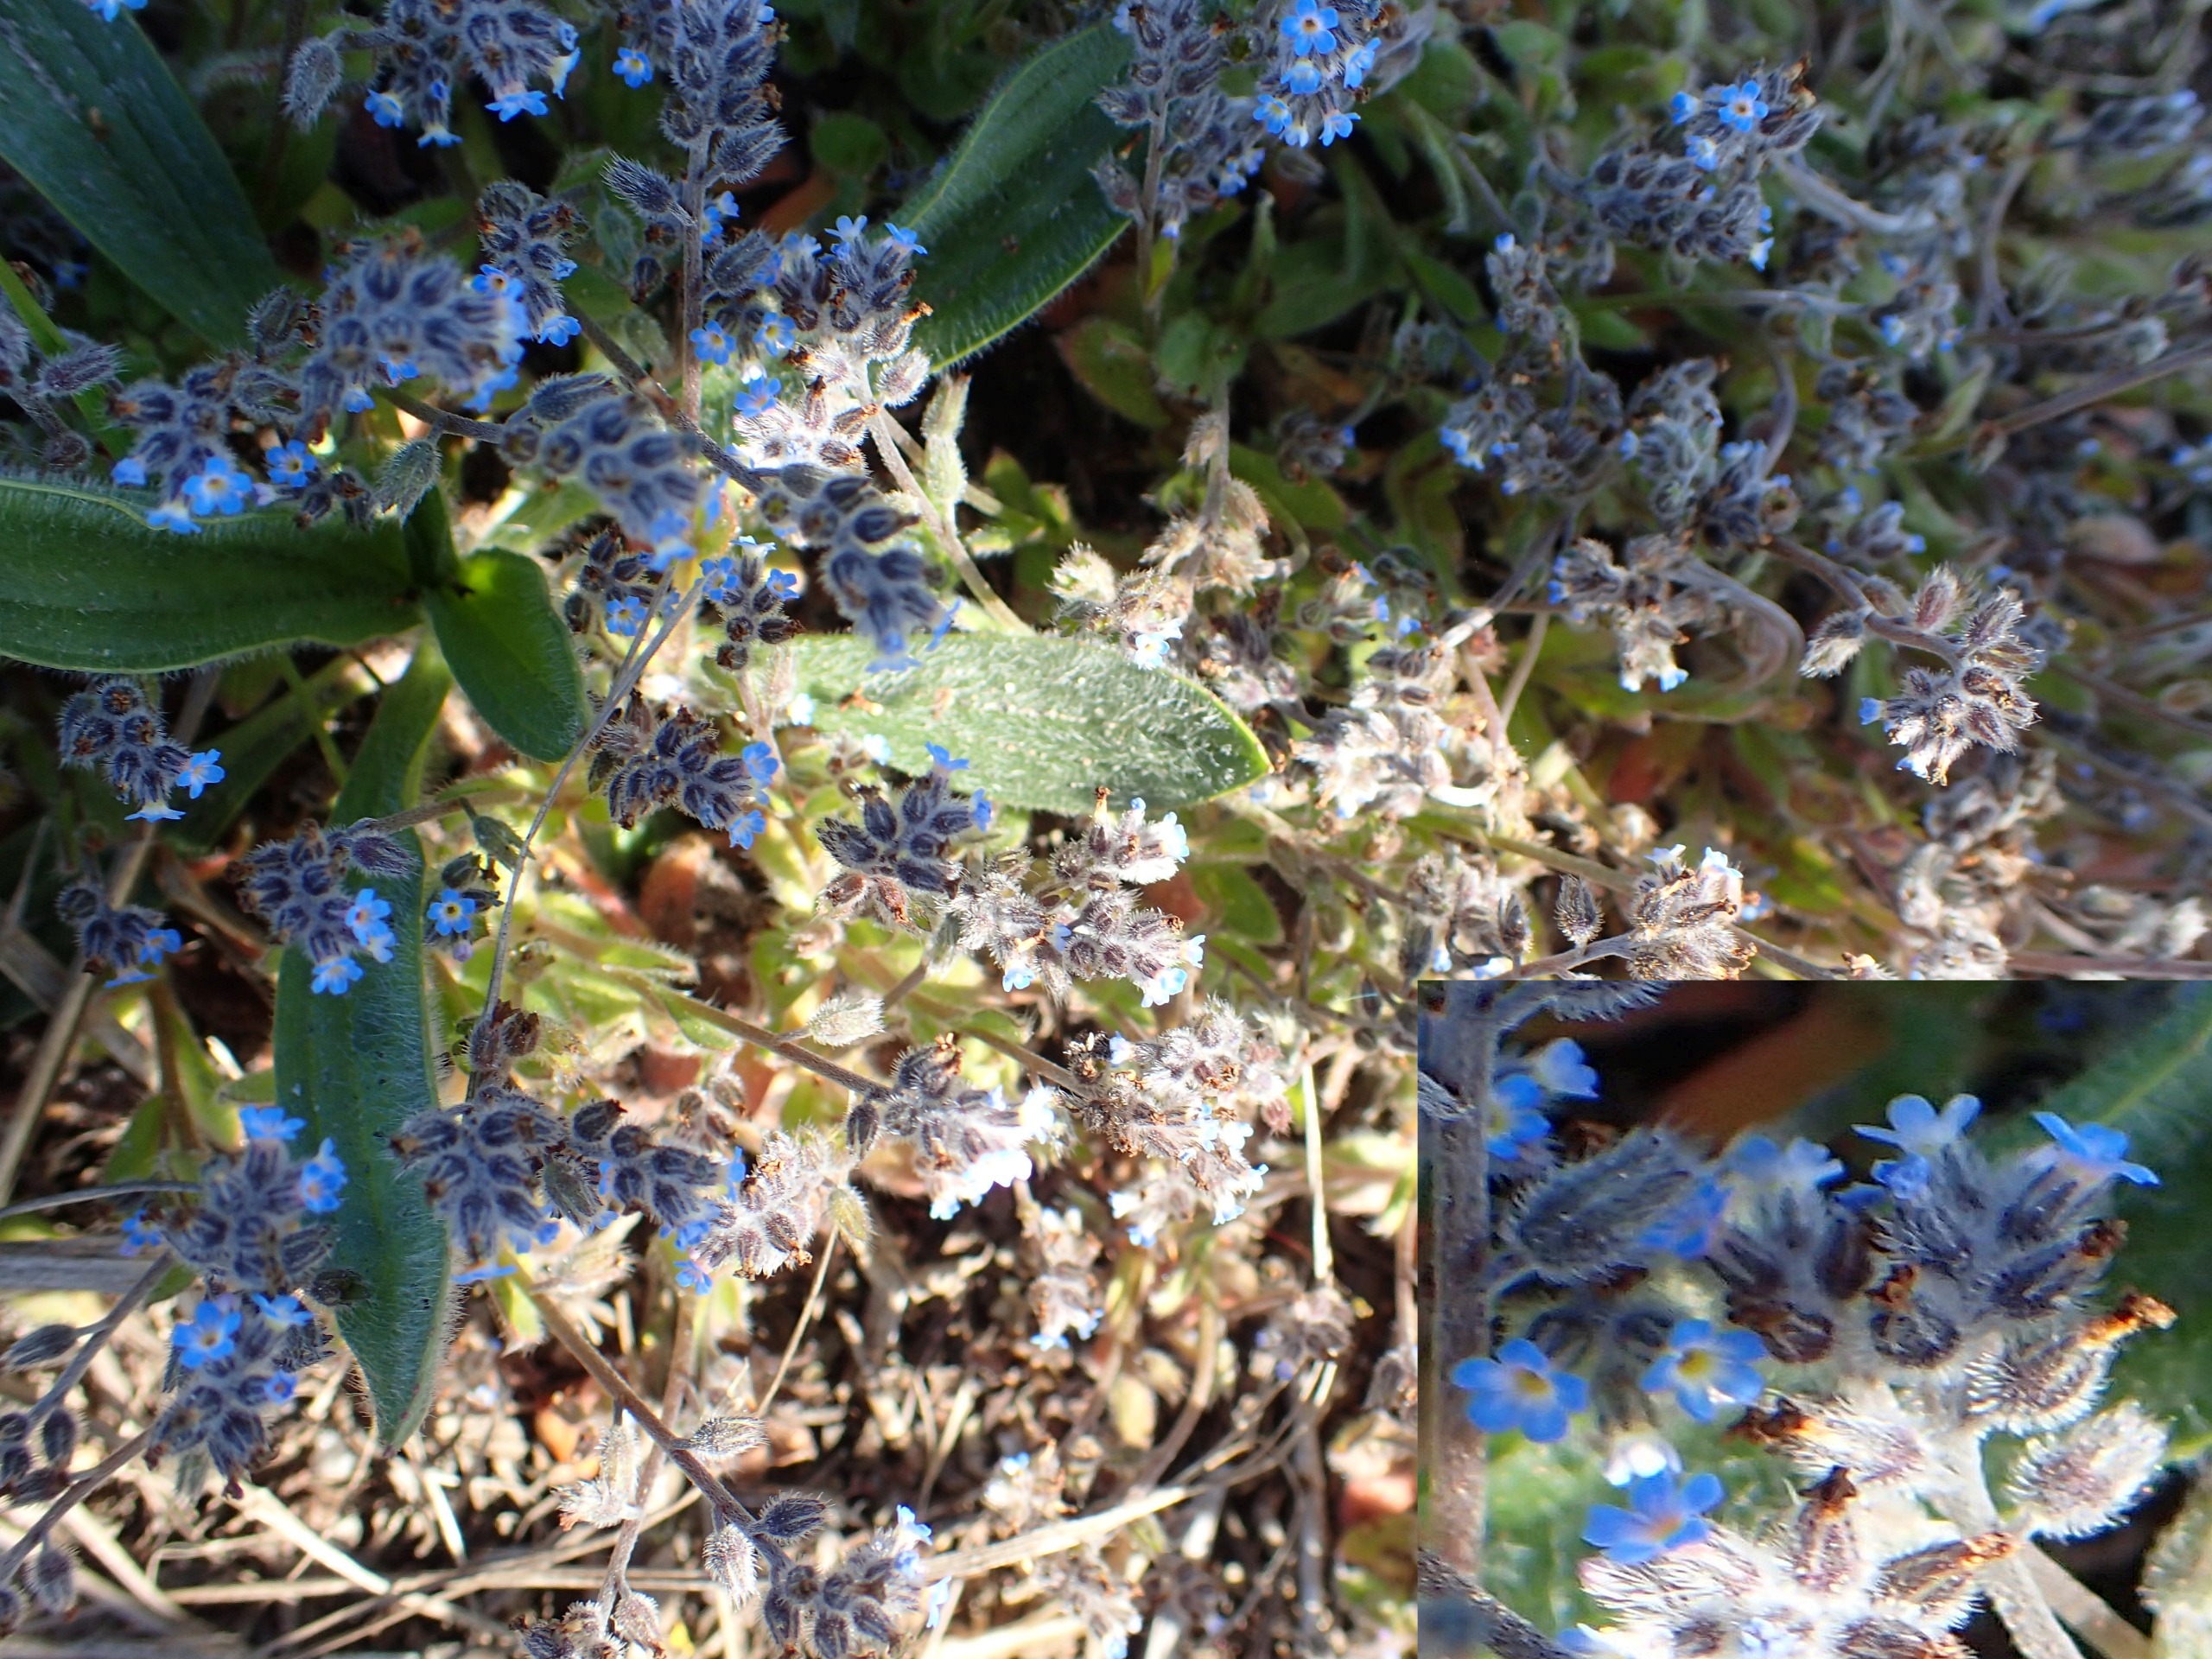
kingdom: Plantae
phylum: Tracheophyta
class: Magnoliopsida
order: Boraginales
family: Boraginaceae
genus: Myosotis
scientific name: Myosotis ramosissima
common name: Bakke-forglemmigej
